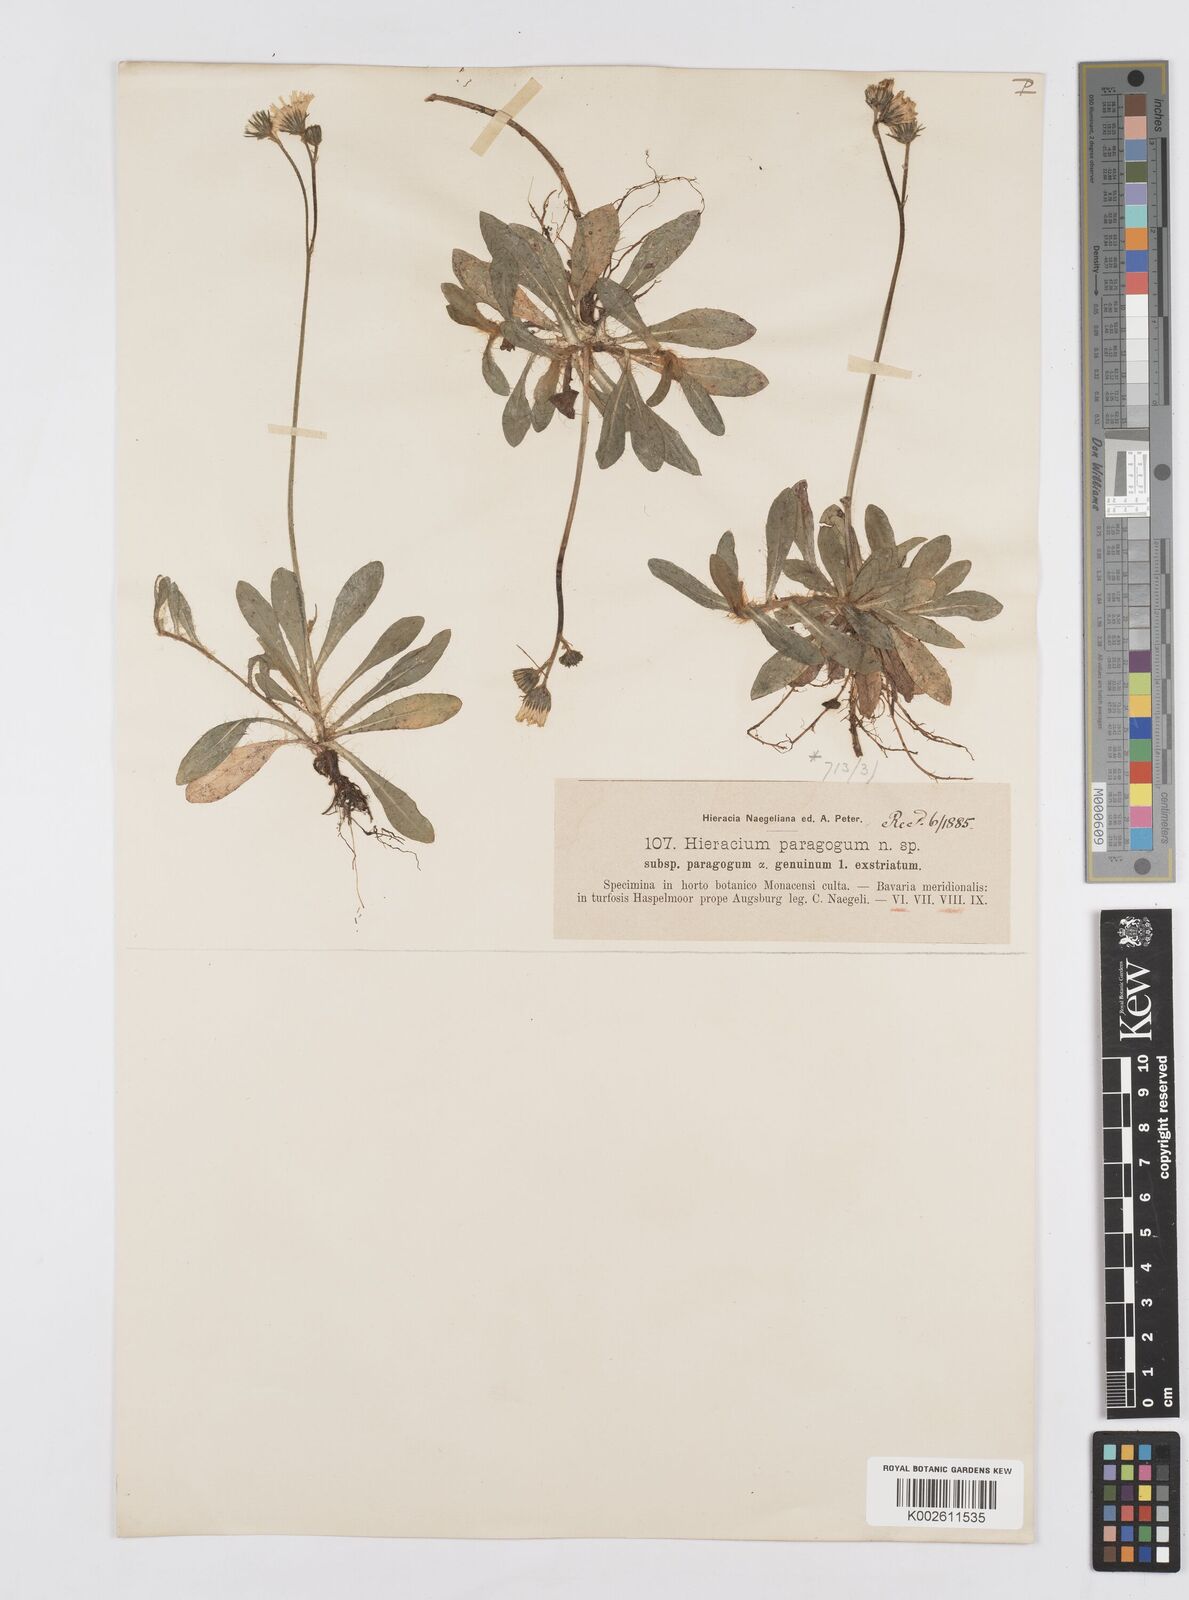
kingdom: Plantae
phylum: Tracheophyta
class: Magnoliopsida
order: Asterales
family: Asteraceae
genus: Pilosella
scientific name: Pilosella paragoga
